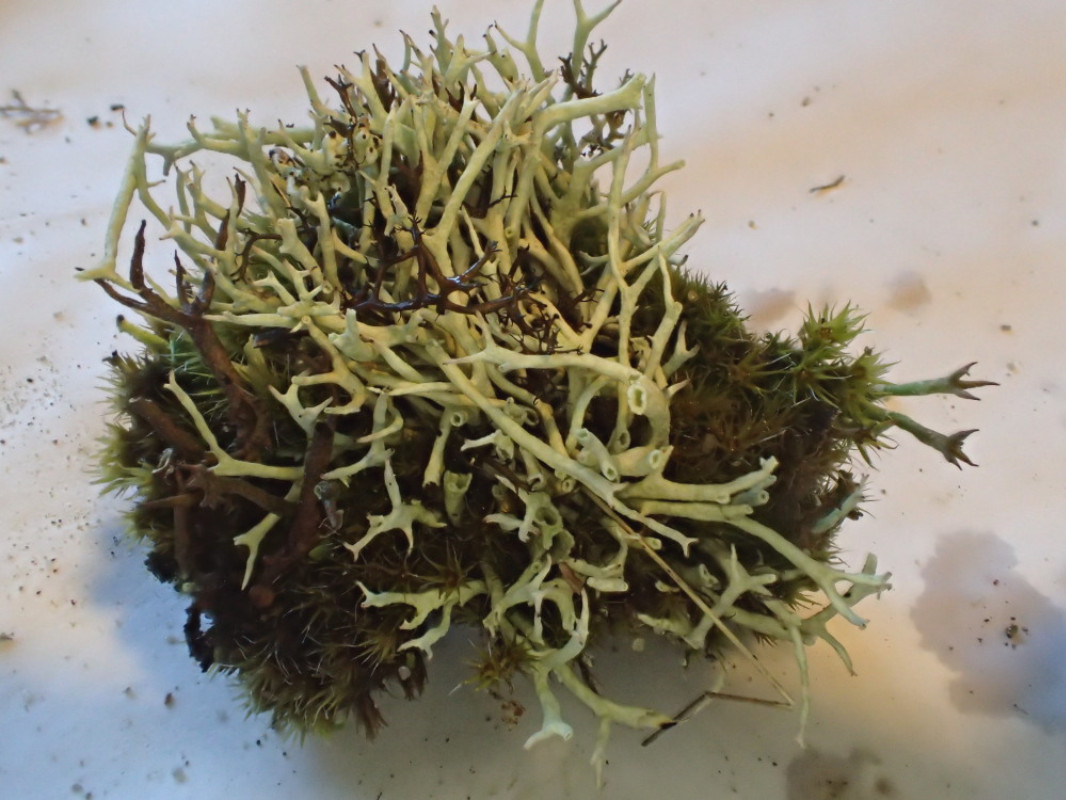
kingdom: Fungi
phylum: Ascomycota
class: Lecanoromycetes
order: Lecanorales
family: Cladoniaceae
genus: Cladonia
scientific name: Cladonia zopfii
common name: klit-bægerlav
